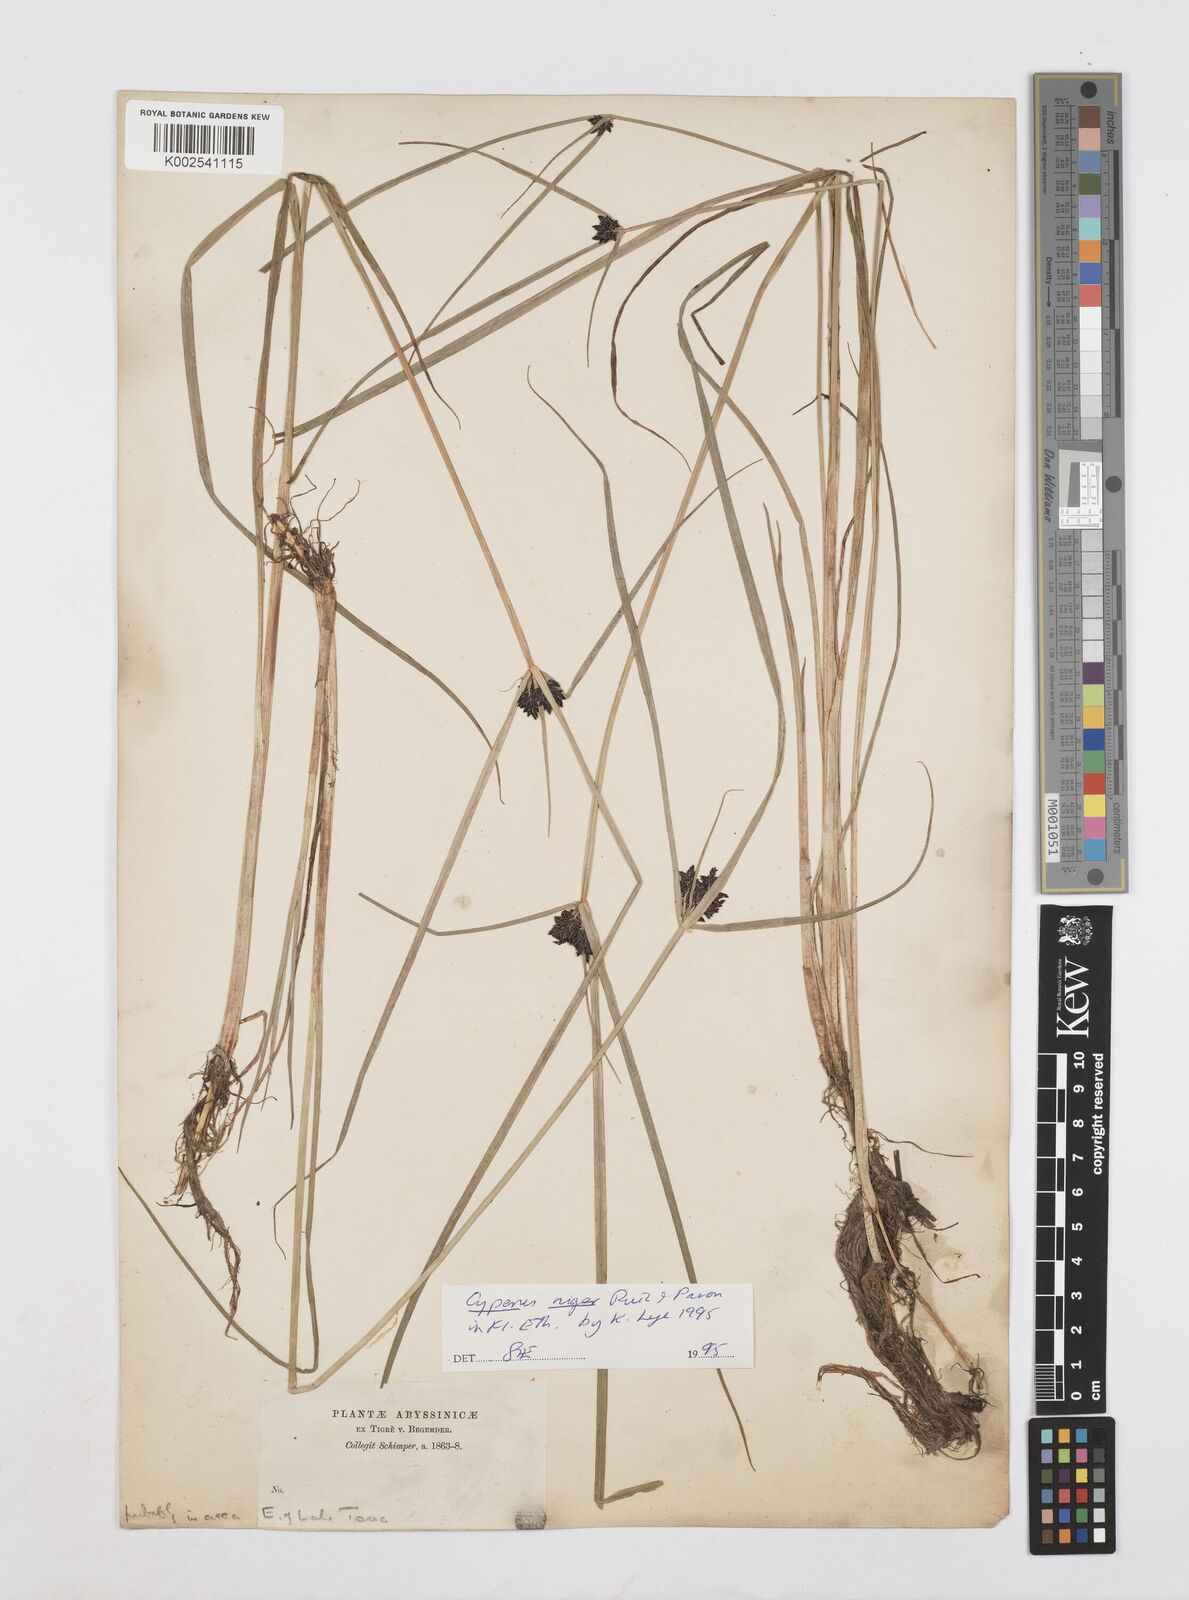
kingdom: Plantae
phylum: Tracheophyta
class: Liliopsida
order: Poales
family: Cyperaceae
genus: Cyperus
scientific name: Cyperus elegantulus
